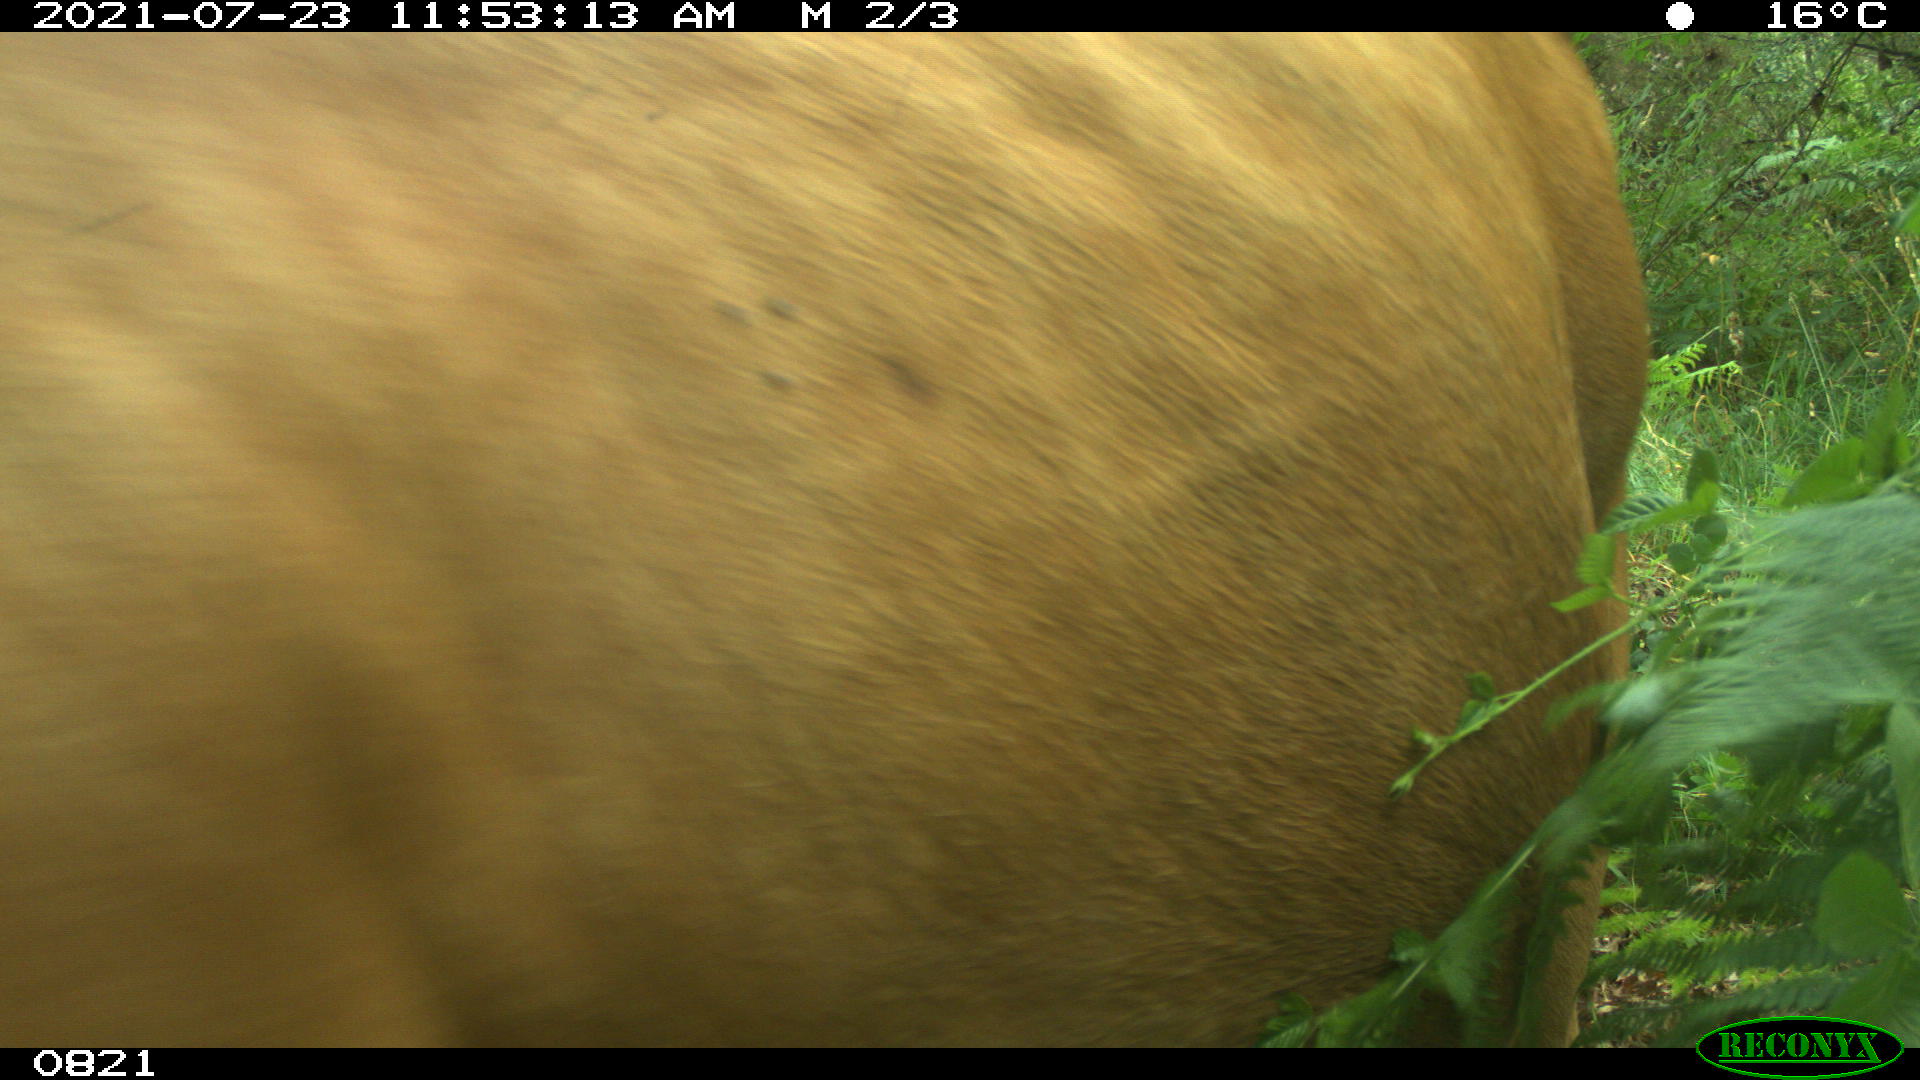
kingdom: Animalia
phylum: Chordata
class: Mammalia
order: Artiodactyla
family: Bovidae
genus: Bos
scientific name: Bos taurus
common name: Domesticated cattle
